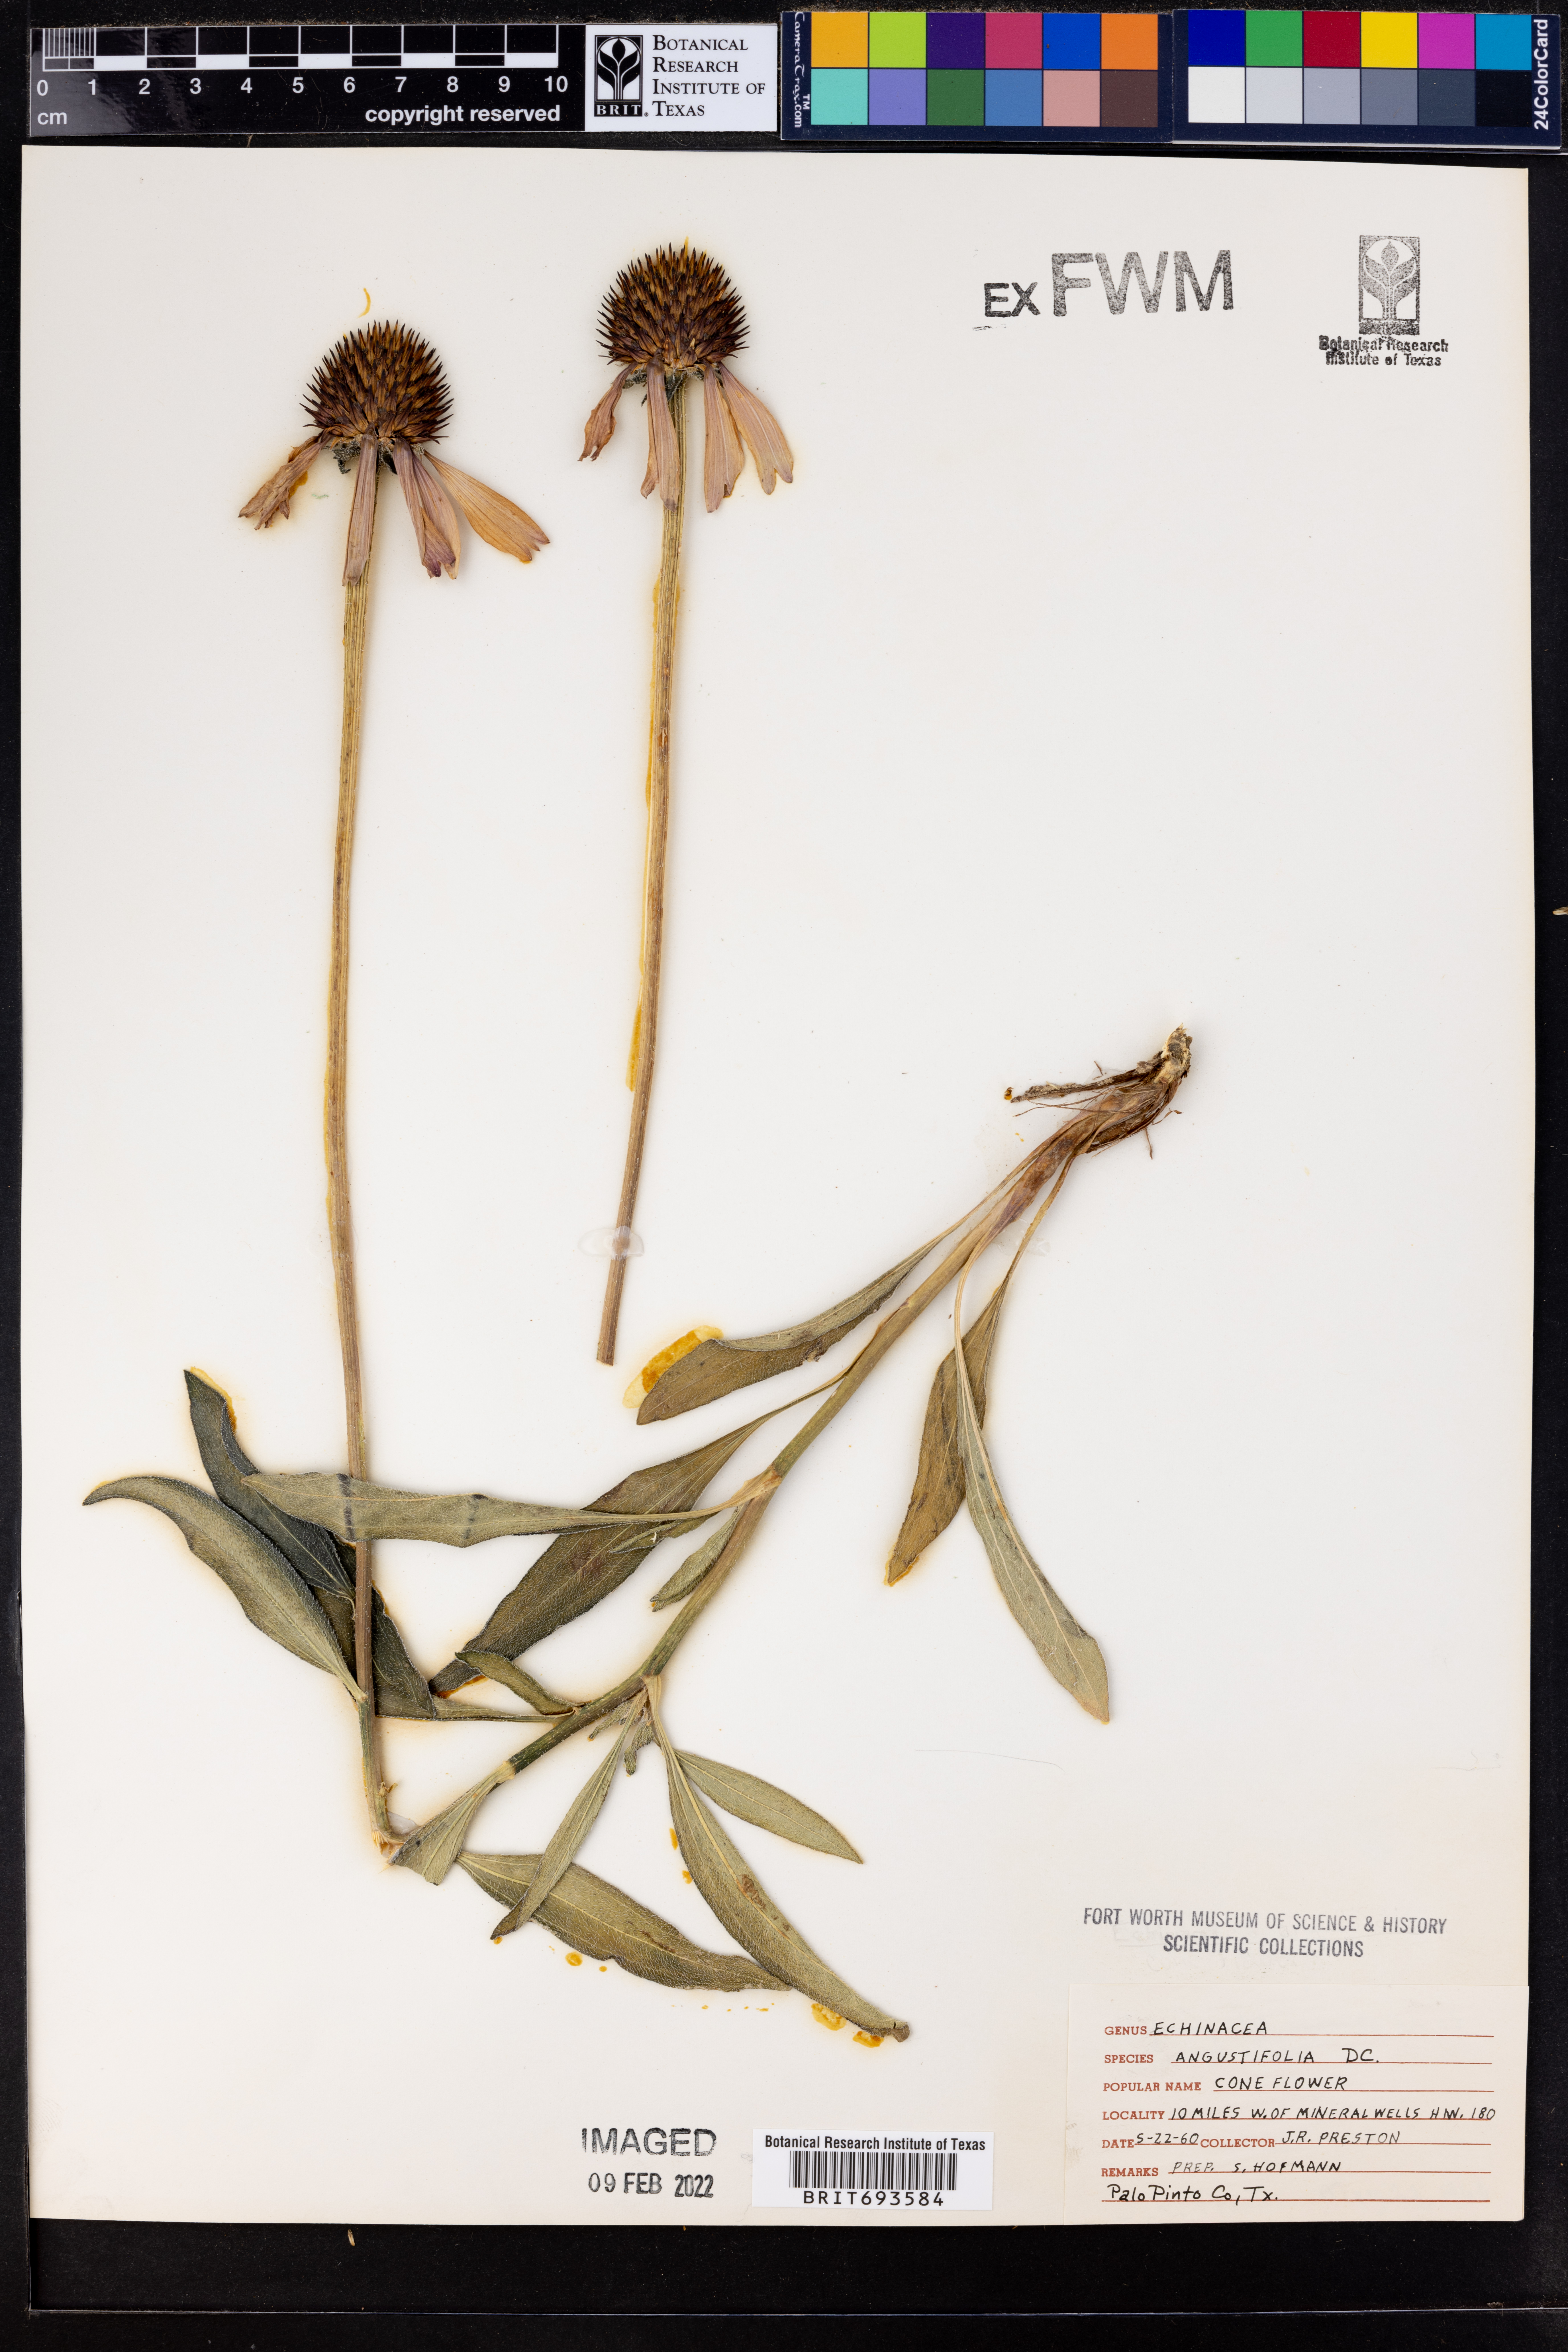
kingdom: Plantae
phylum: Tracheophyta
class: Magnoliopsida
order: Asterales
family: Asteraceae
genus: Echinacea
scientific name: Echinacea angustifolia
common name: Black-sampson echinacea
